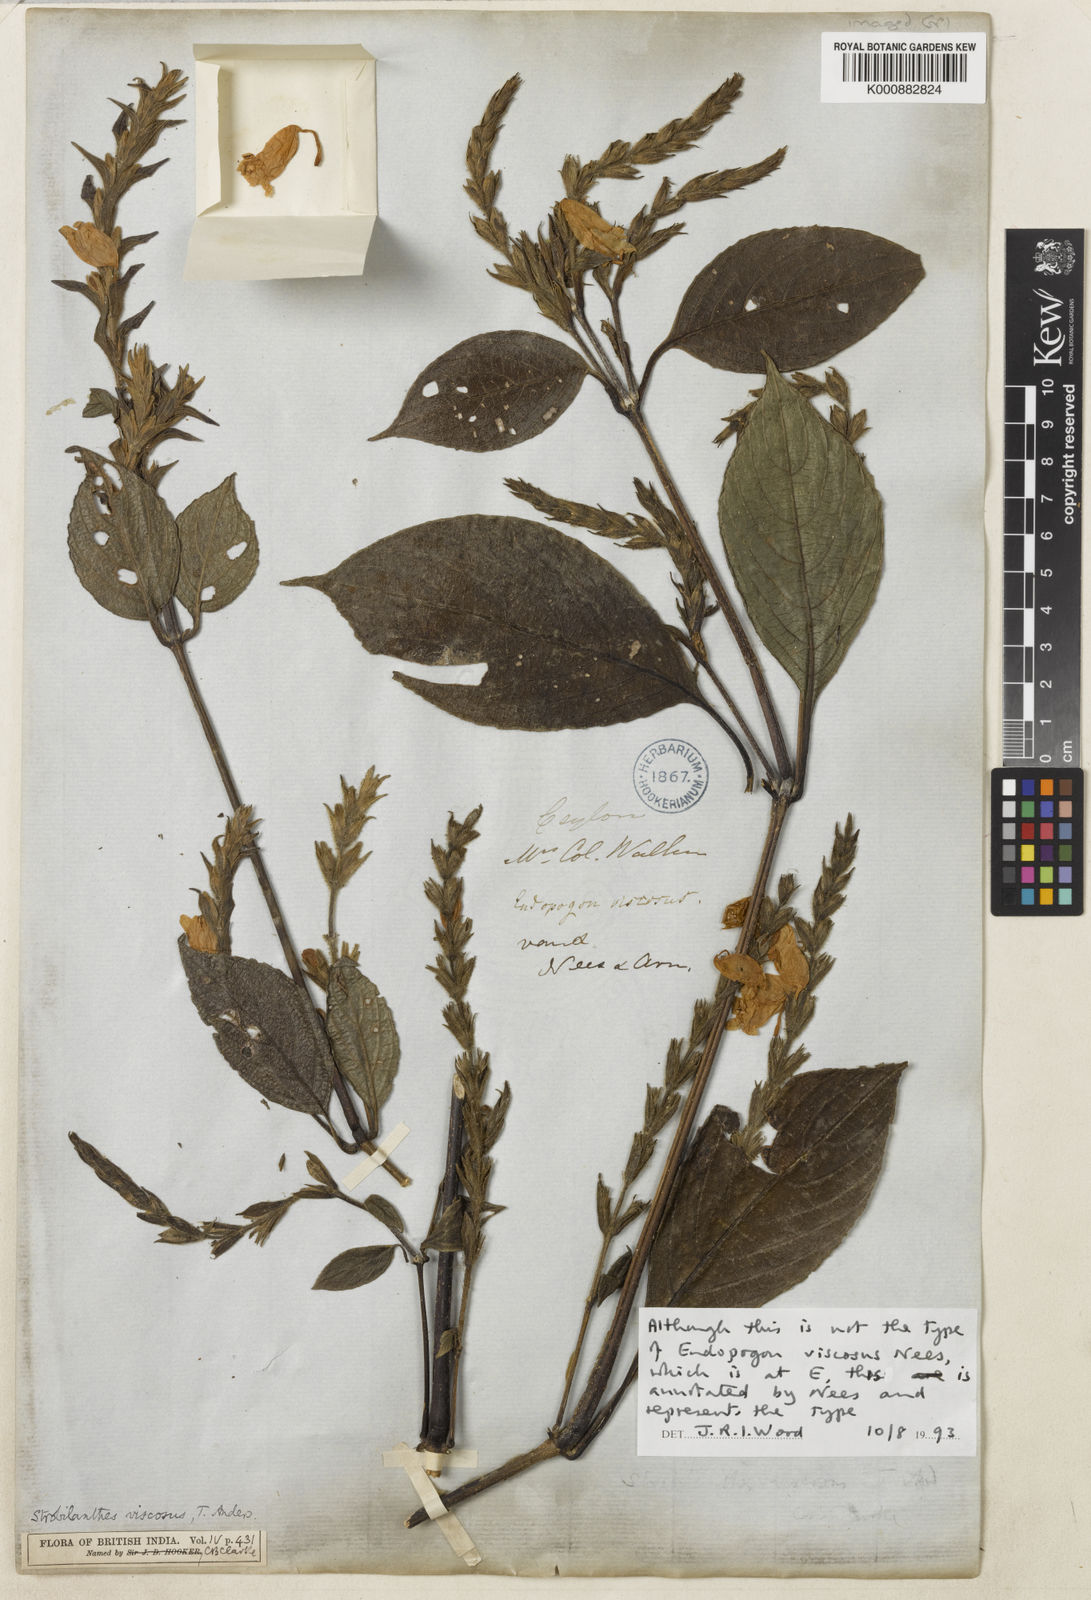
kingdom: Plantae
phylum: Tracheophyta
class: Magnoliopsida
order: Lamiales
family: Acanthaceae
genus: Strobilanthes
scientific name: Strobilanthes viscosa
